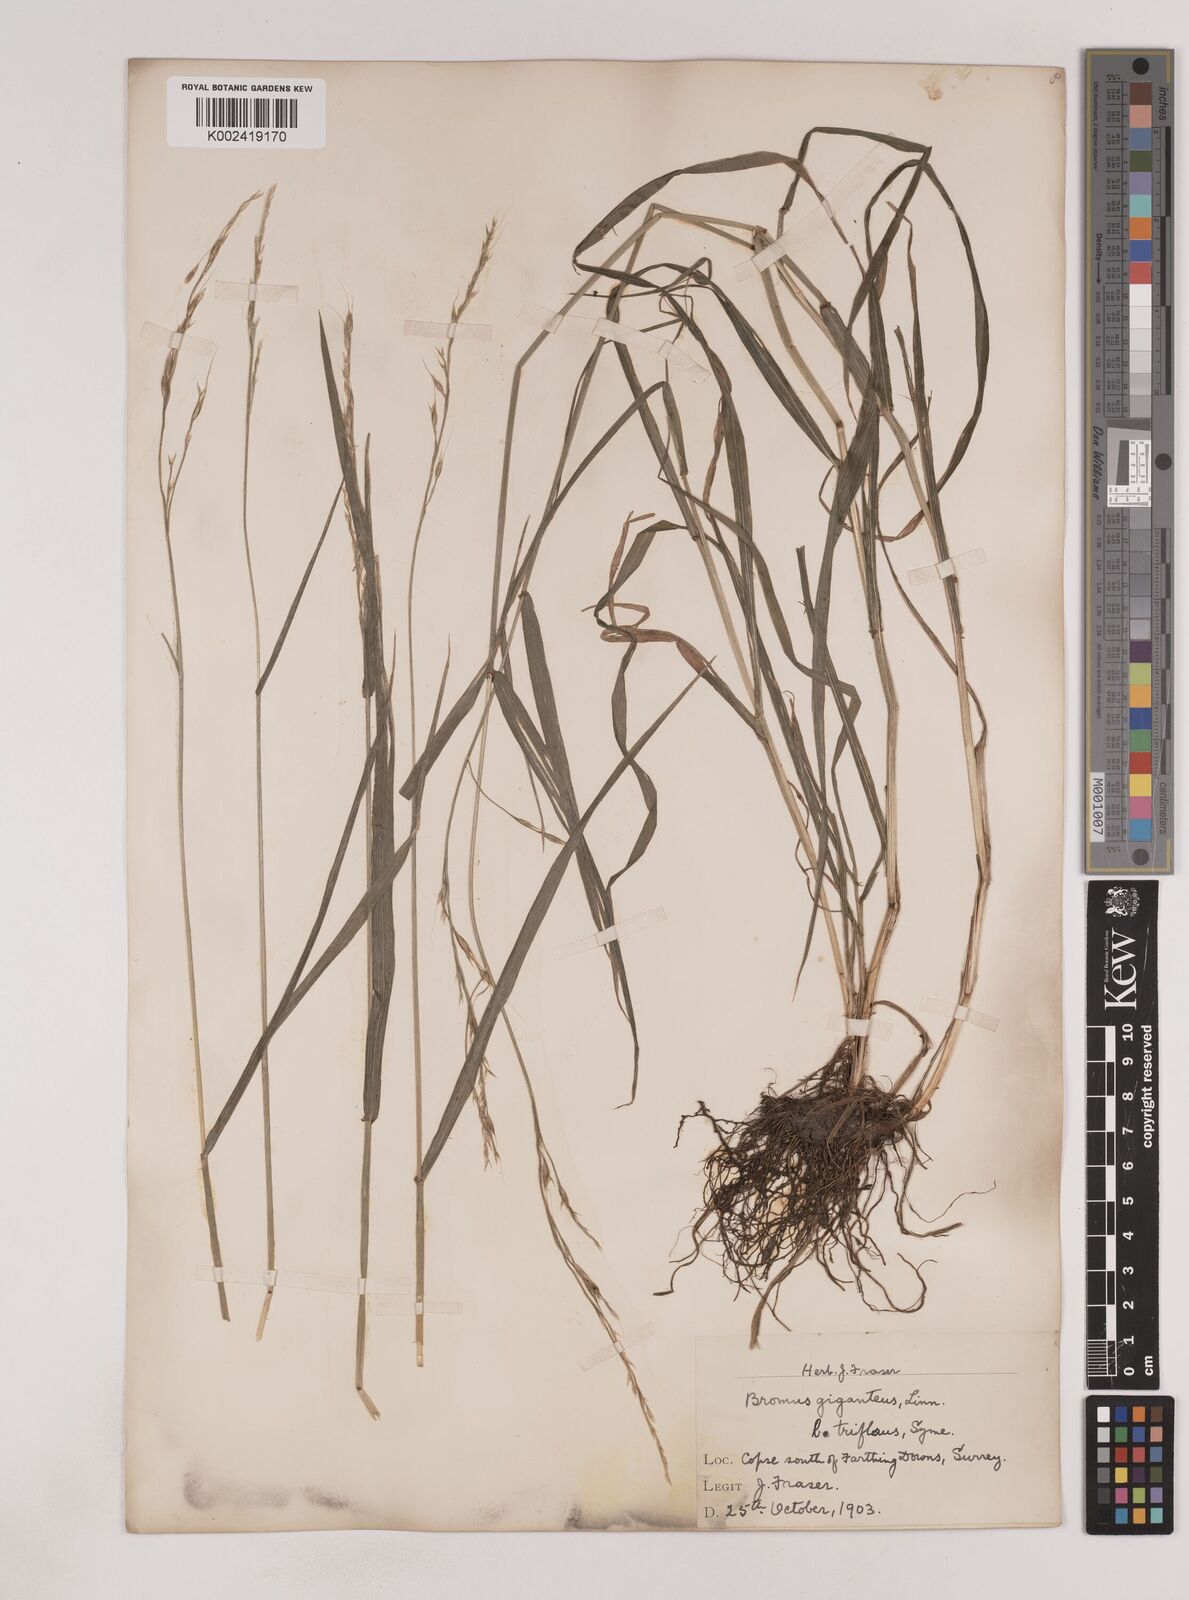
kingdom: Plantae
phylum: Tracheophyta
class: Liliopsida
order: Poales
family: Poaceae
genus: Lolium
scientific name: Lolium giganteum
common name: Giant fescue
